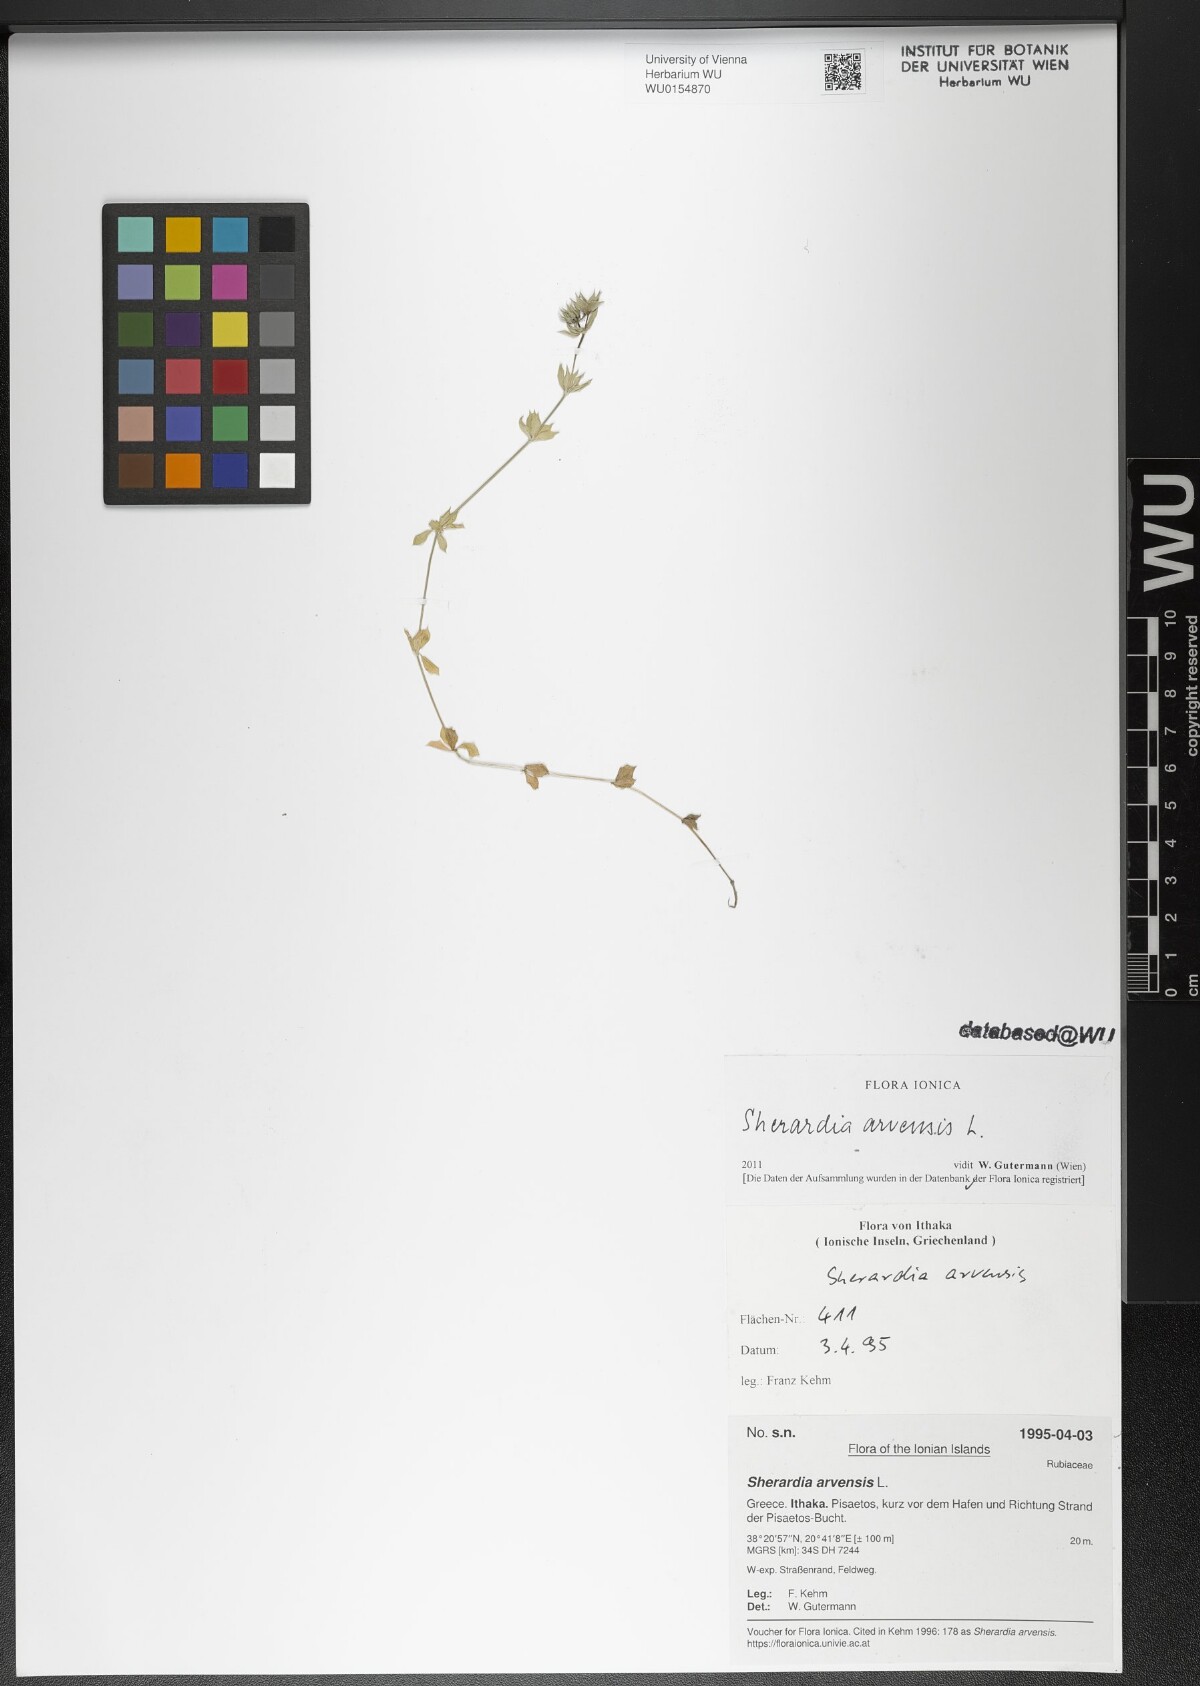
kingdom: Plantae
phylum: Tracheophyta
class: Magnoliopsida
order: Gentianales
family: Rubiaceae
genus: Sherardia
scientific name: Sherardia arvensis
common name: Field madder
